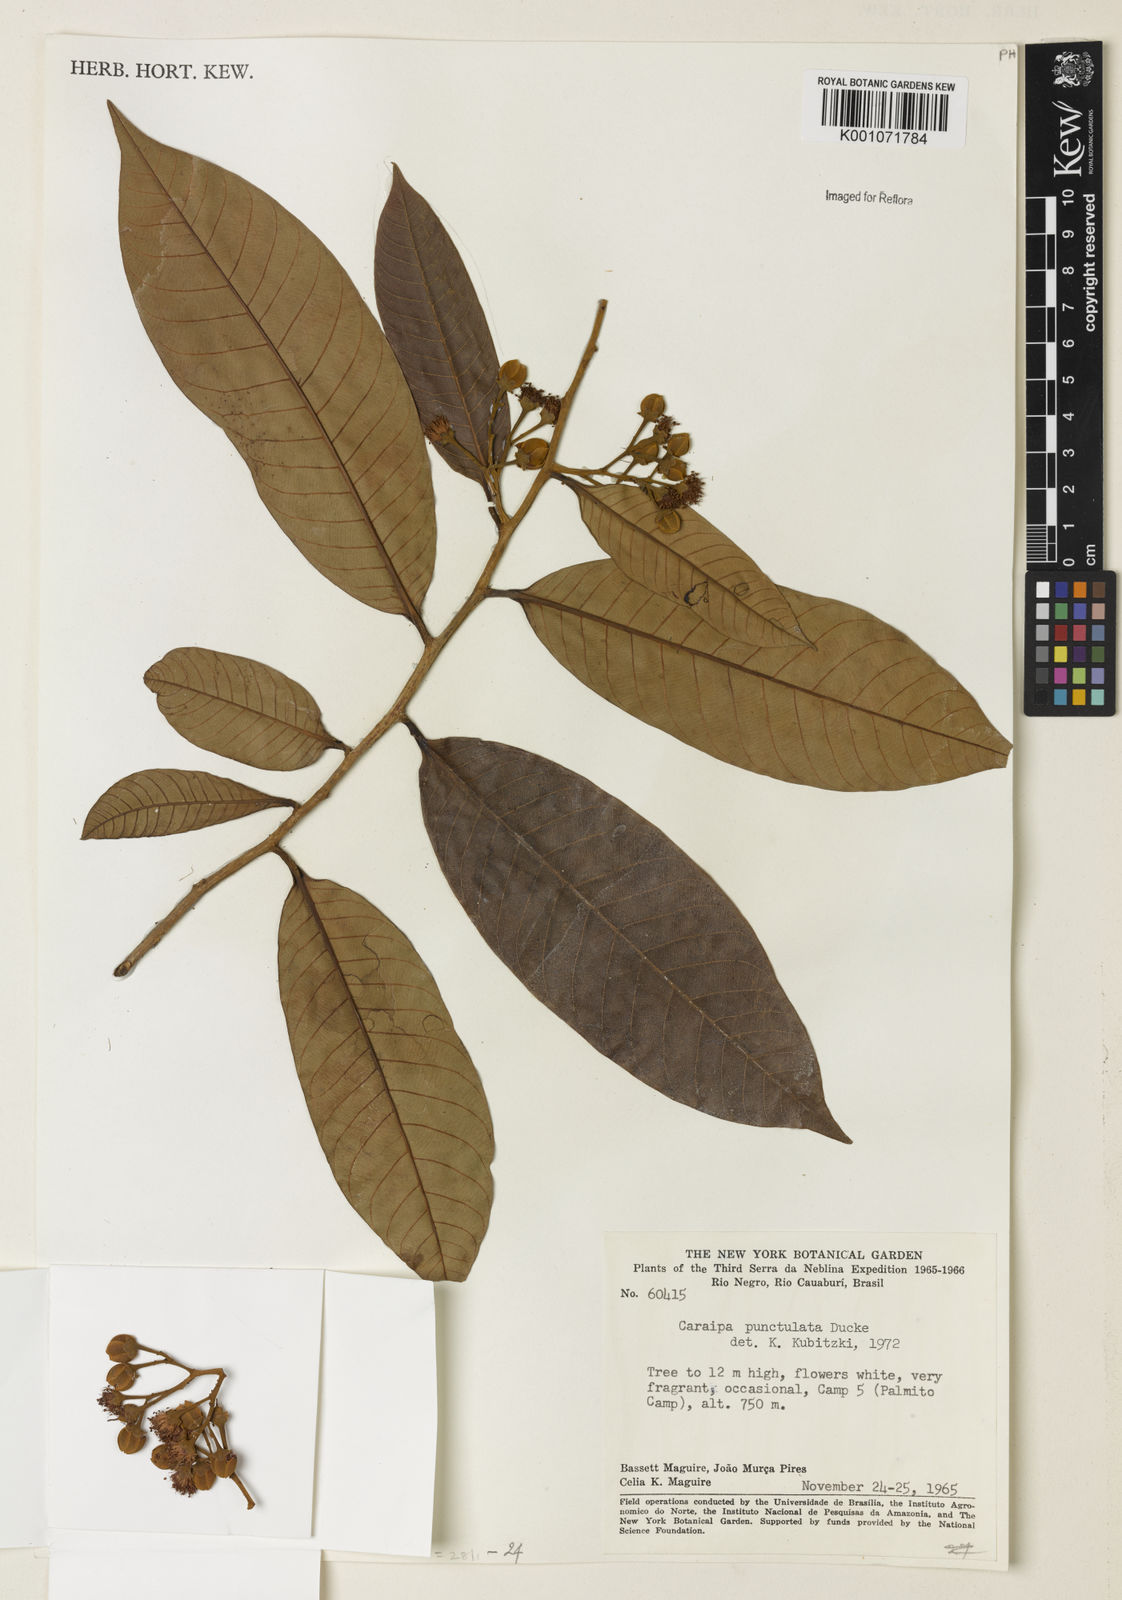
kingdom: Plantae
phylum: Tracheophyta
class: Magnoliopsida
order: Malpighiales
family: Calophyllaceae
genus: Caraipa
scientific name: Caraipa punctulata
